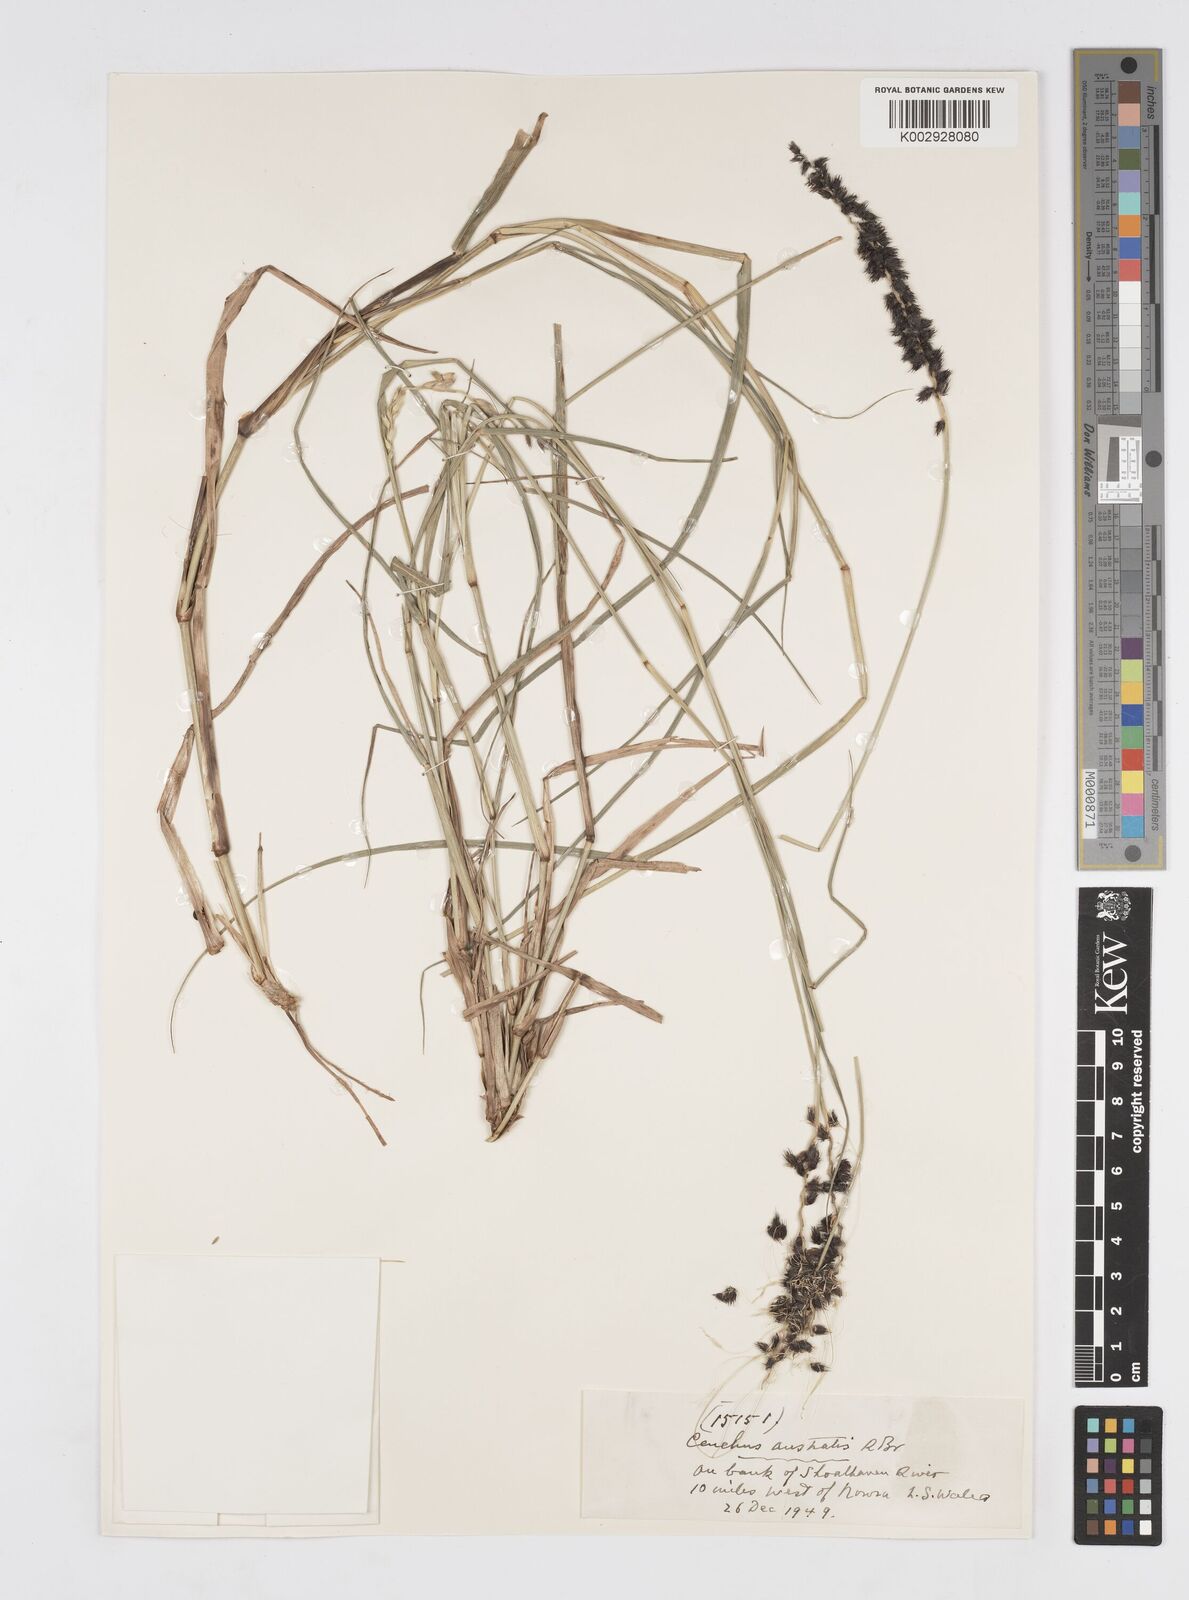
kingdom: Plantae
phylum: Tracheophyta
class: Liliopsida
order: Poales
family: Poaceae
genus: Cenchrus
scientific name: Cenchrus caliculatus
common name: Large bur grass
